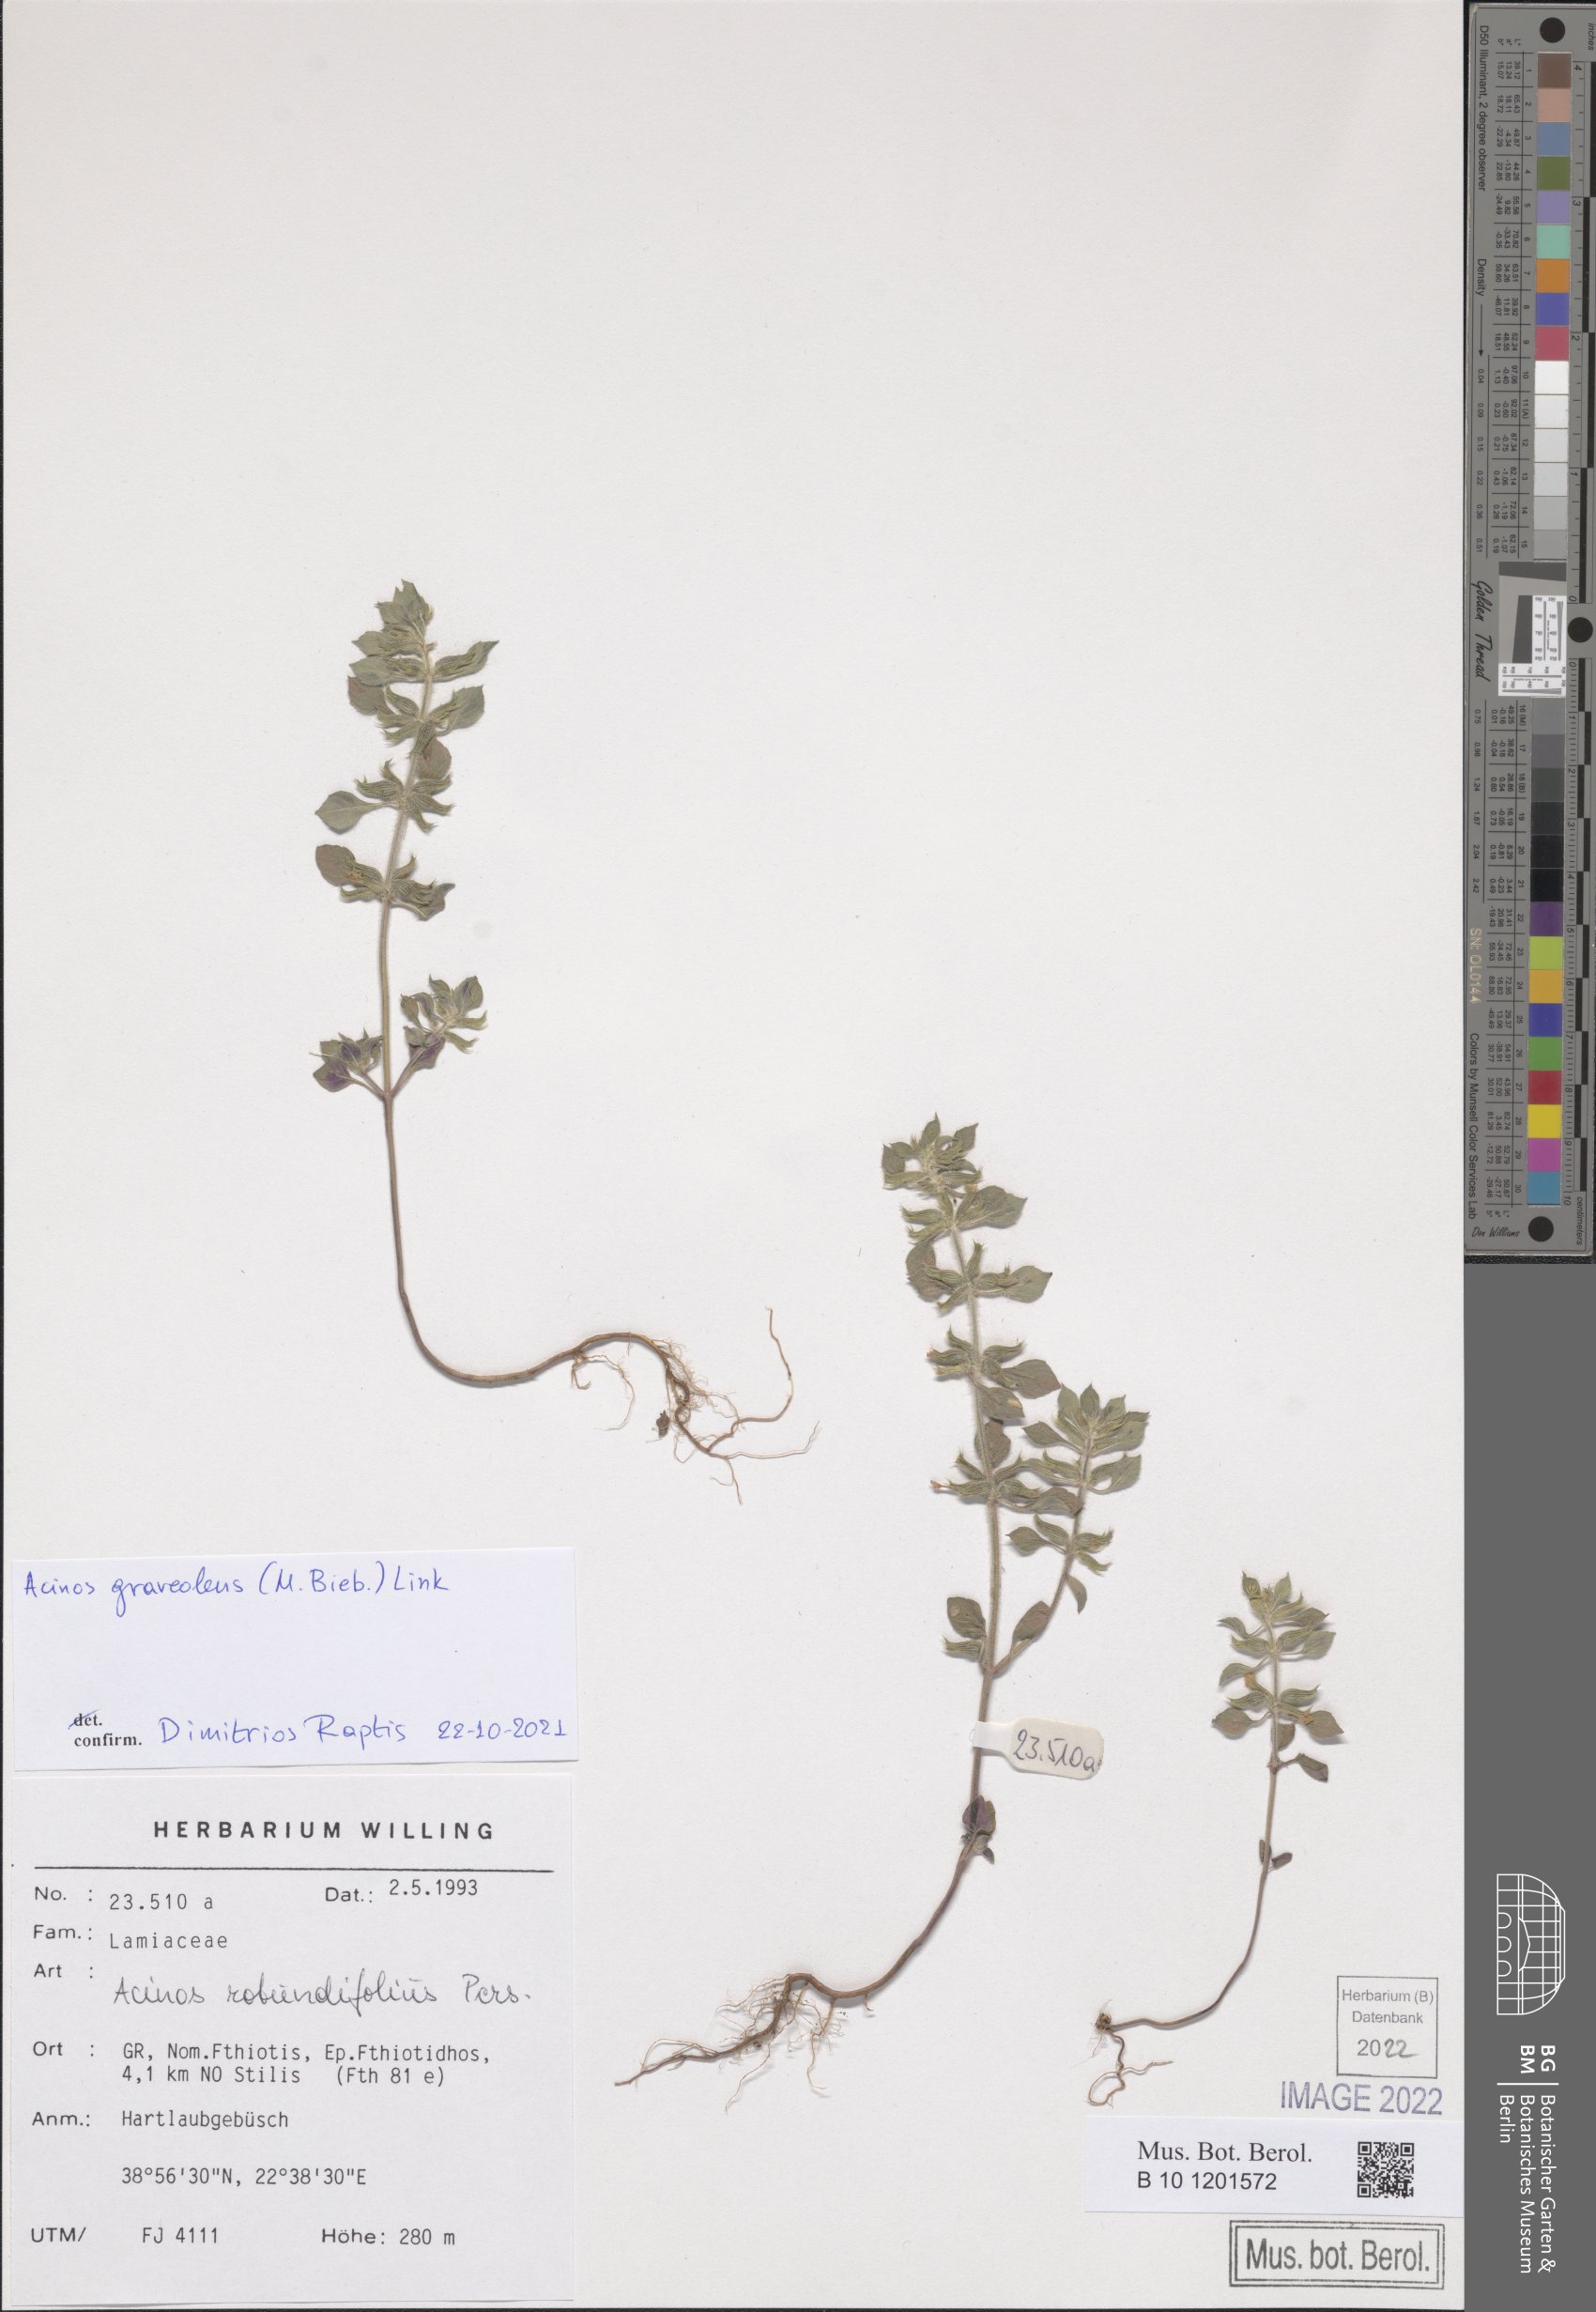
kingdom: Plantae
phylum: Tracheophyta
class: Magnoliopsida
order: Lamiales
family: Lamiaceae
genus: Clinopodium
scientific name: Clinopodium graveolens
